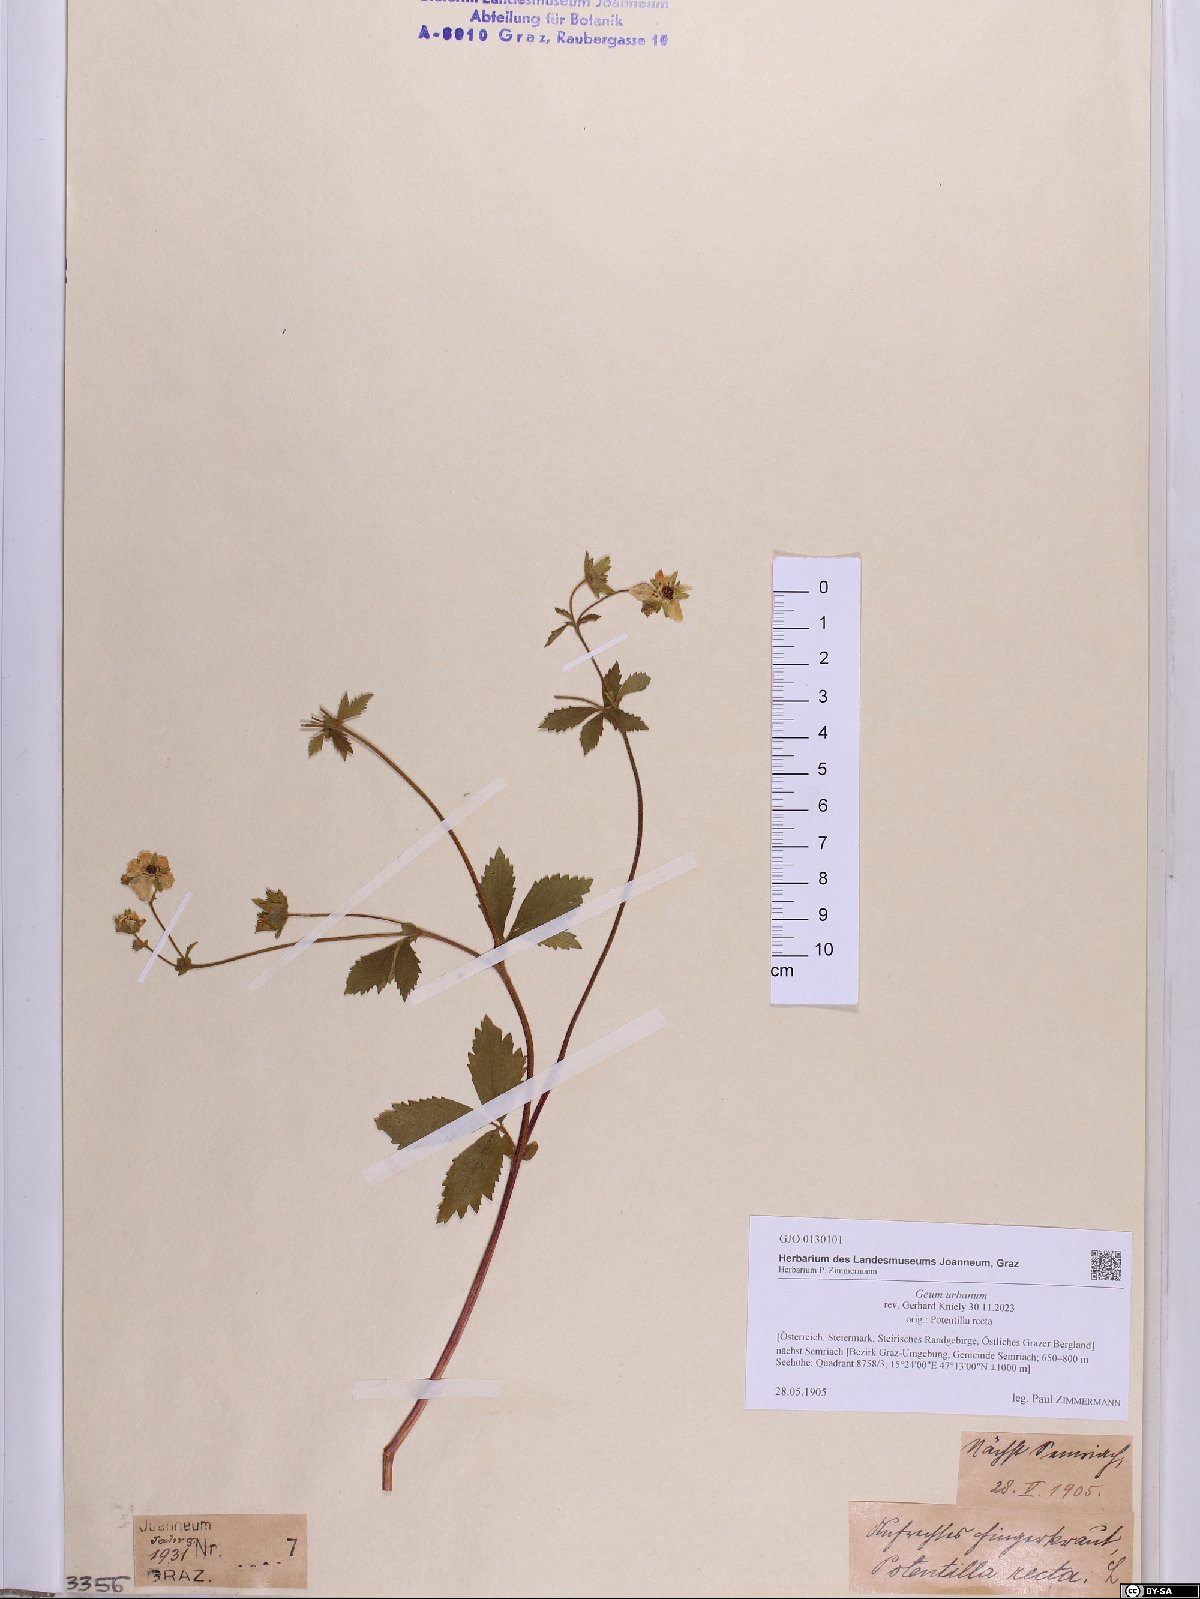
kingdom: Plantae
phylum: Tracheophyta
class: Magnoliopsida
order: Rosales
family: Rosaceae
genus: Geum
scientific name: Geum urbanum
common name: Wood avens
